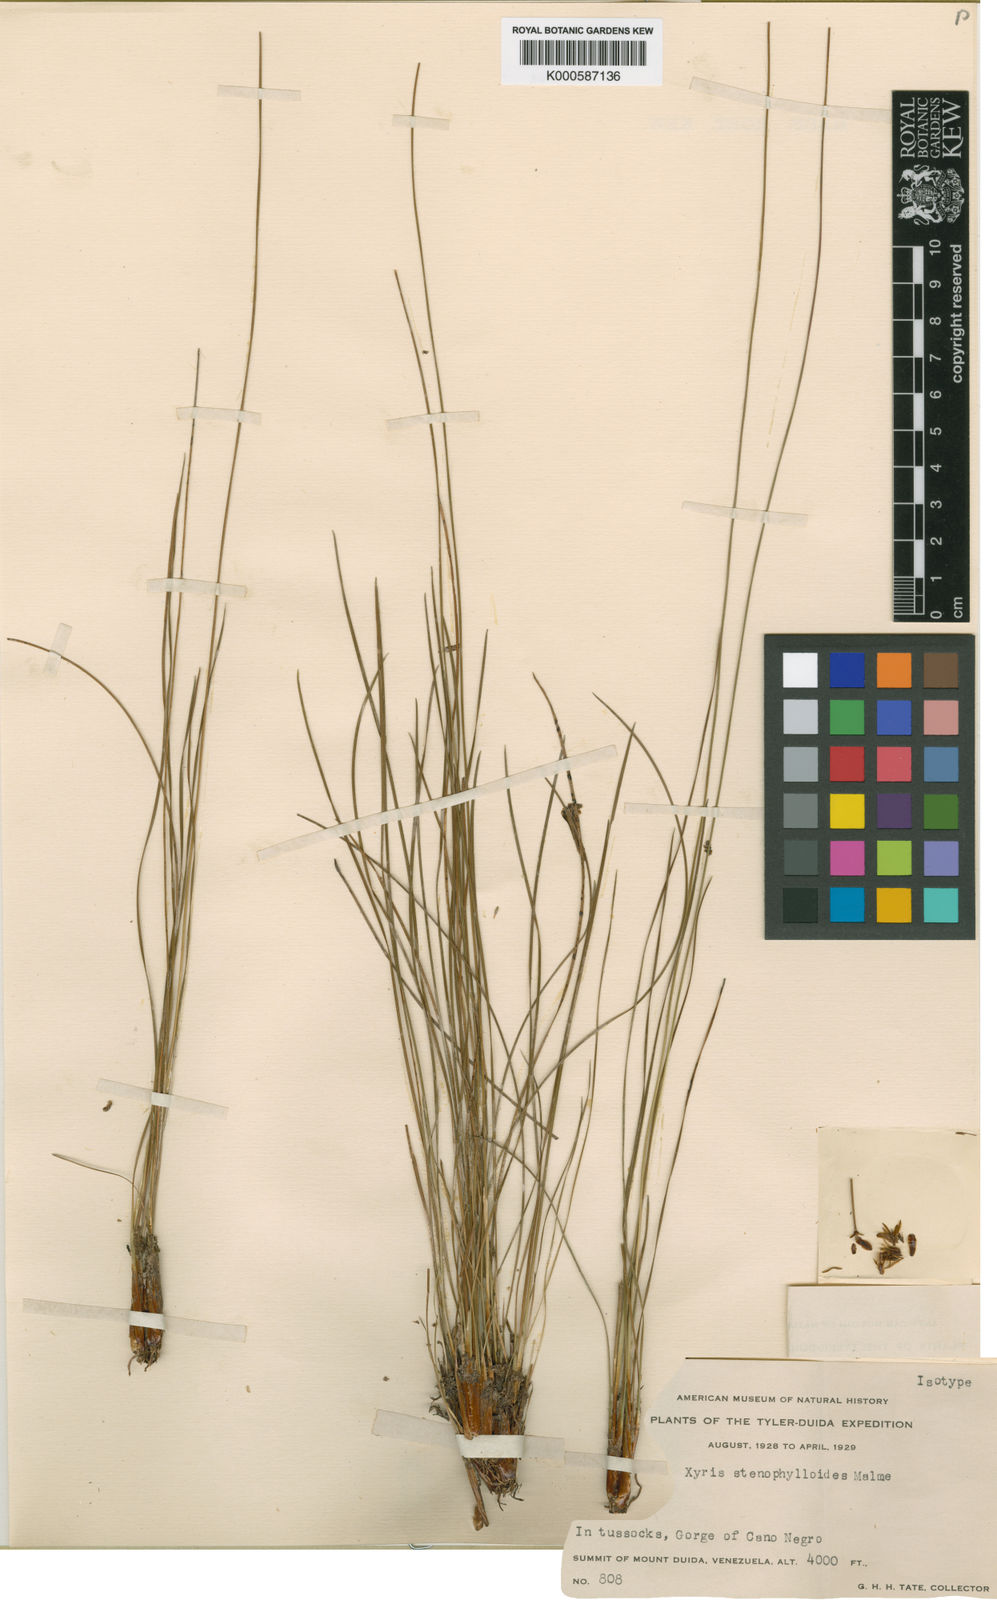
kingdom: Plantae
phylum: Tracheophyta
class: Liliopsida
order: Poales
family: Xyridaceae
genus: Xyris
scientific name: Xyris stenophylloides
